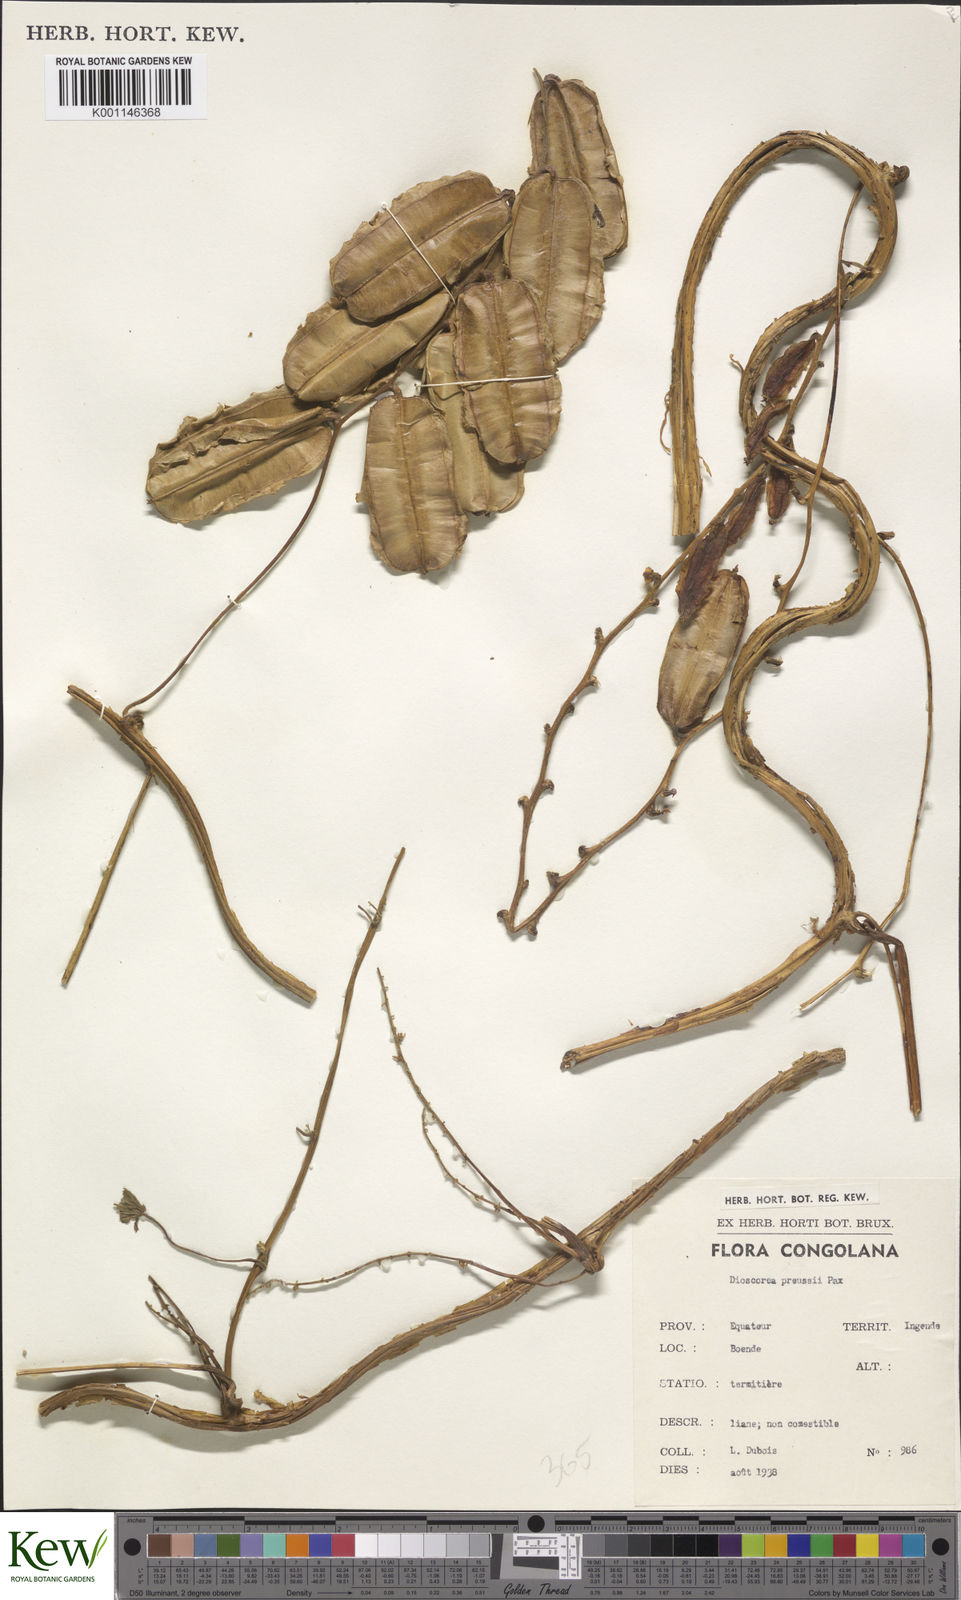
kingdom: Plantae
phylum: Tracheophyta
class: Liliopsida
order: Dioscoreales
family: Dioscoreaceae
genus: Dioscorea
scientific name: Dioscorea preussii
